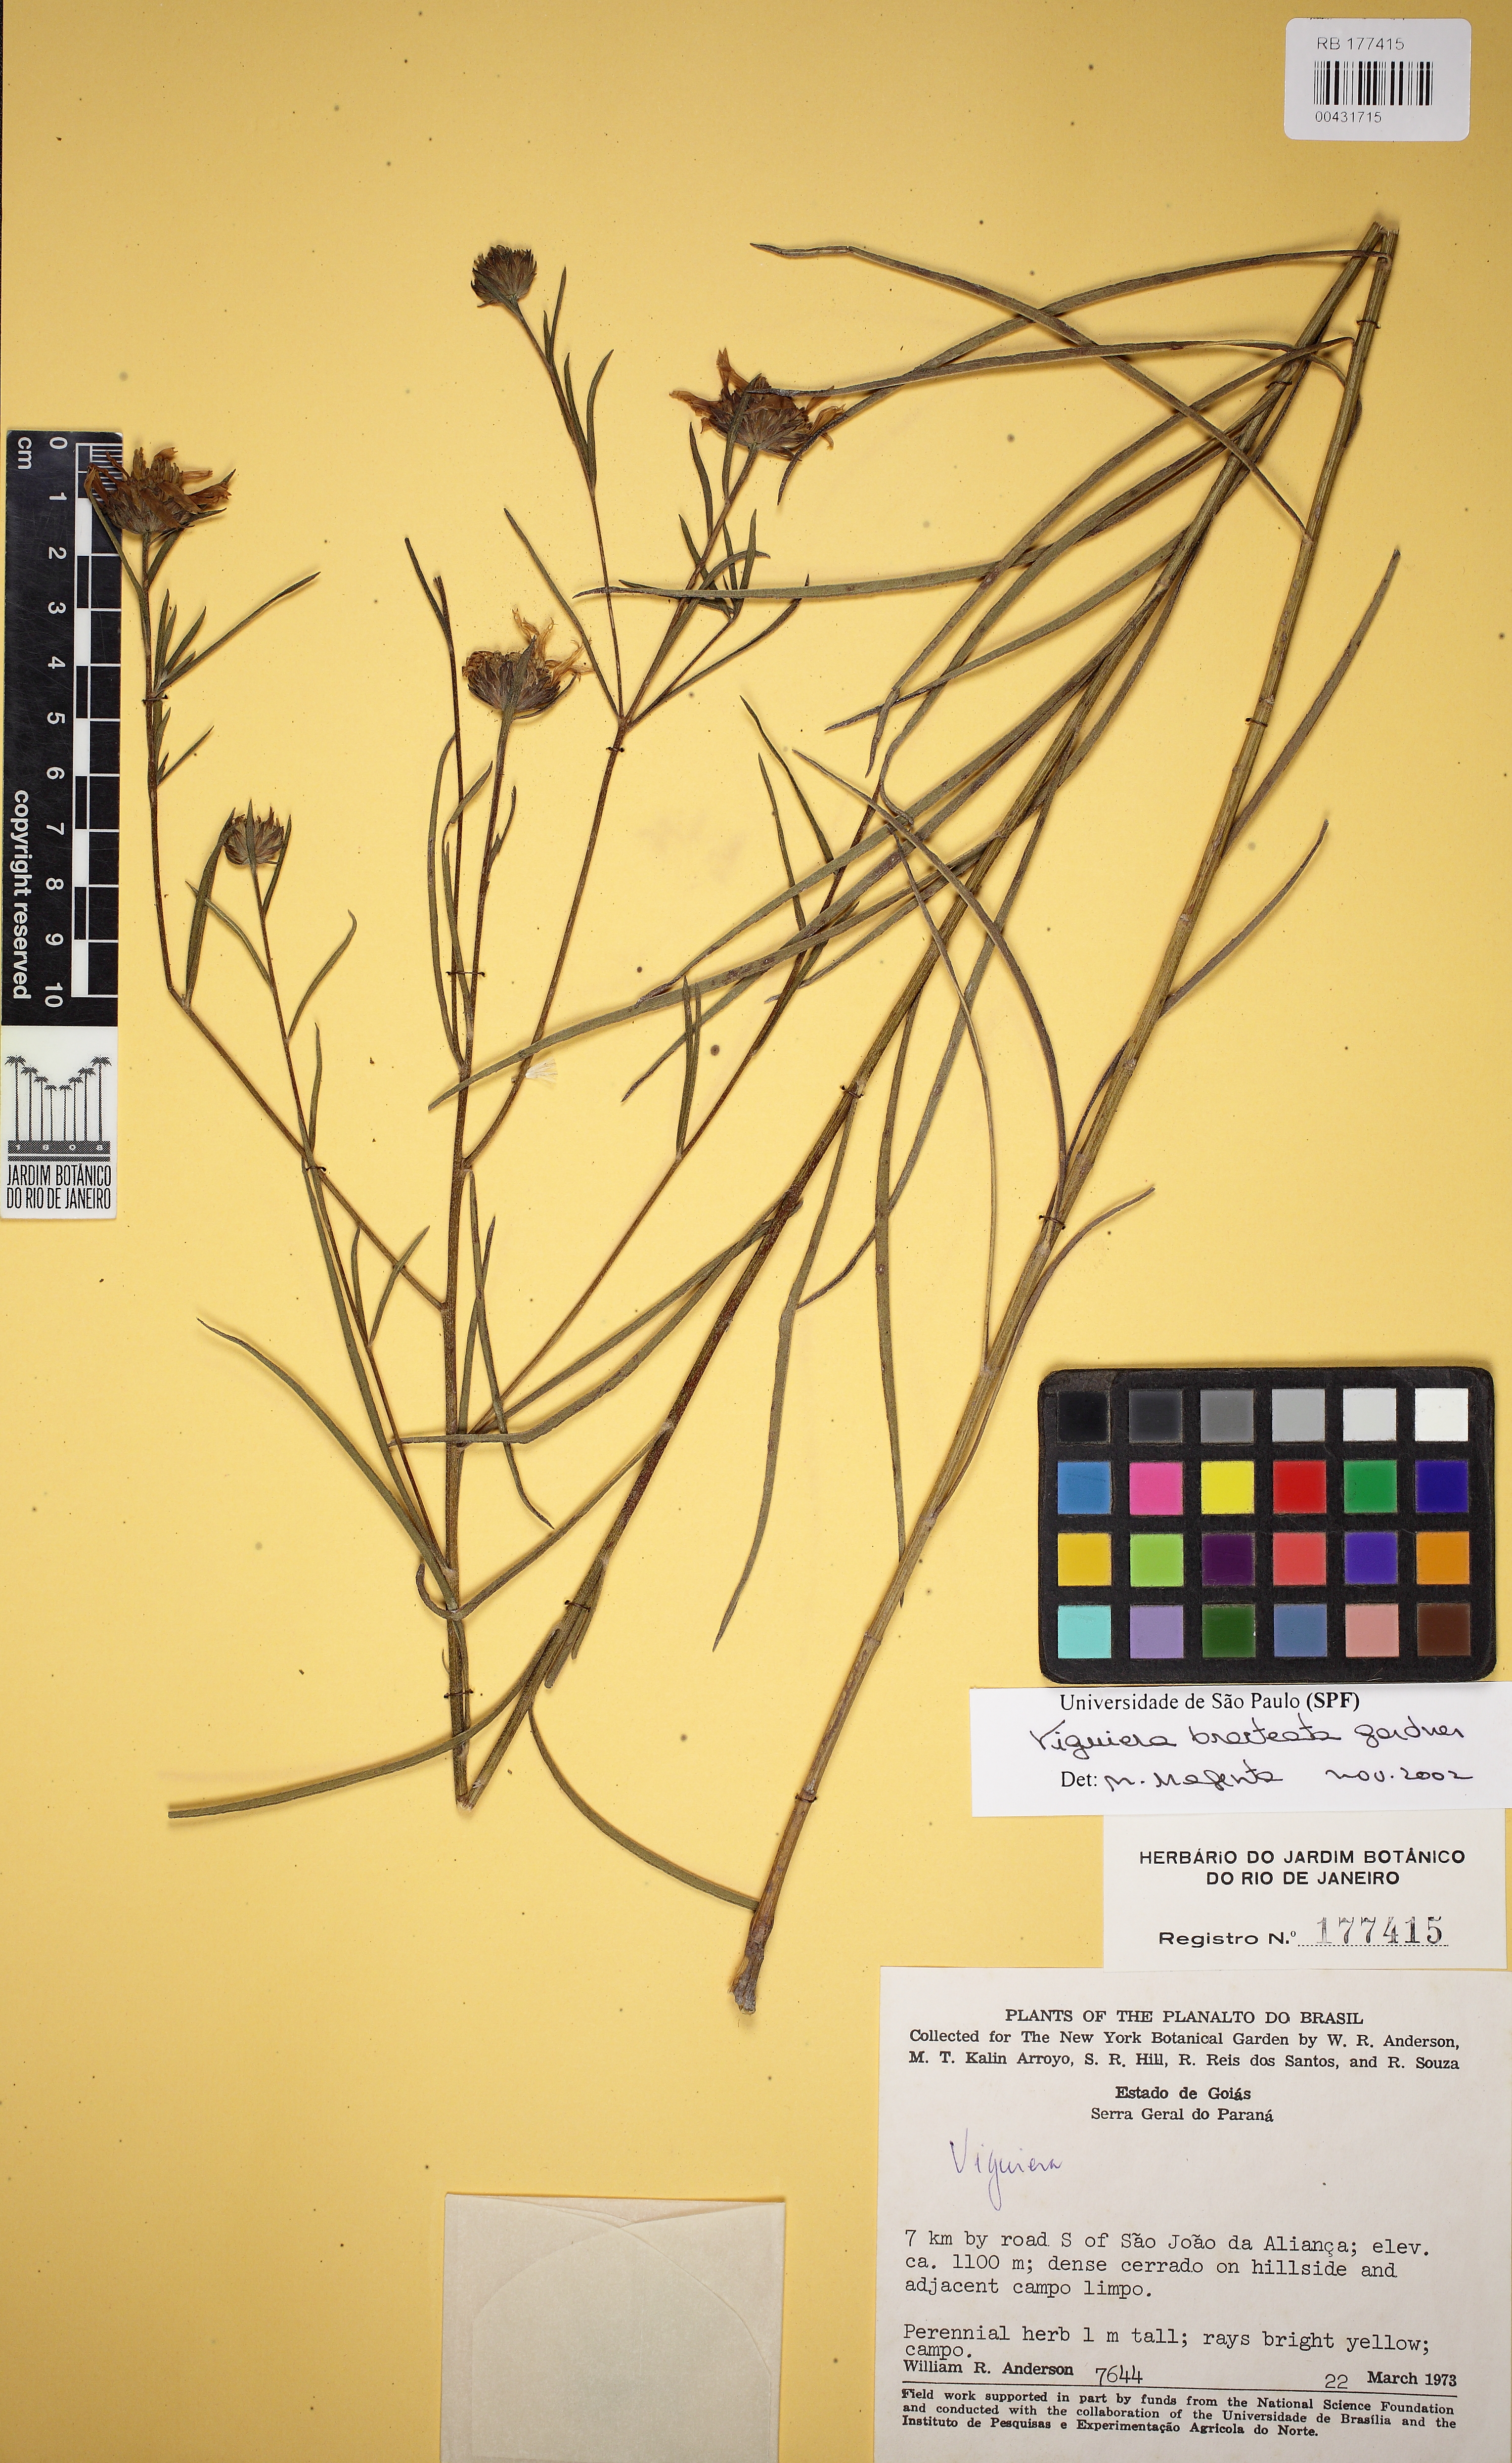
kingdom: Plantae
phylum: Tracheophyta
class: Magnoliopsida
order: Asterales
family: Asteraceae
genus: Aldama
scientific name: Aldama bracteata
